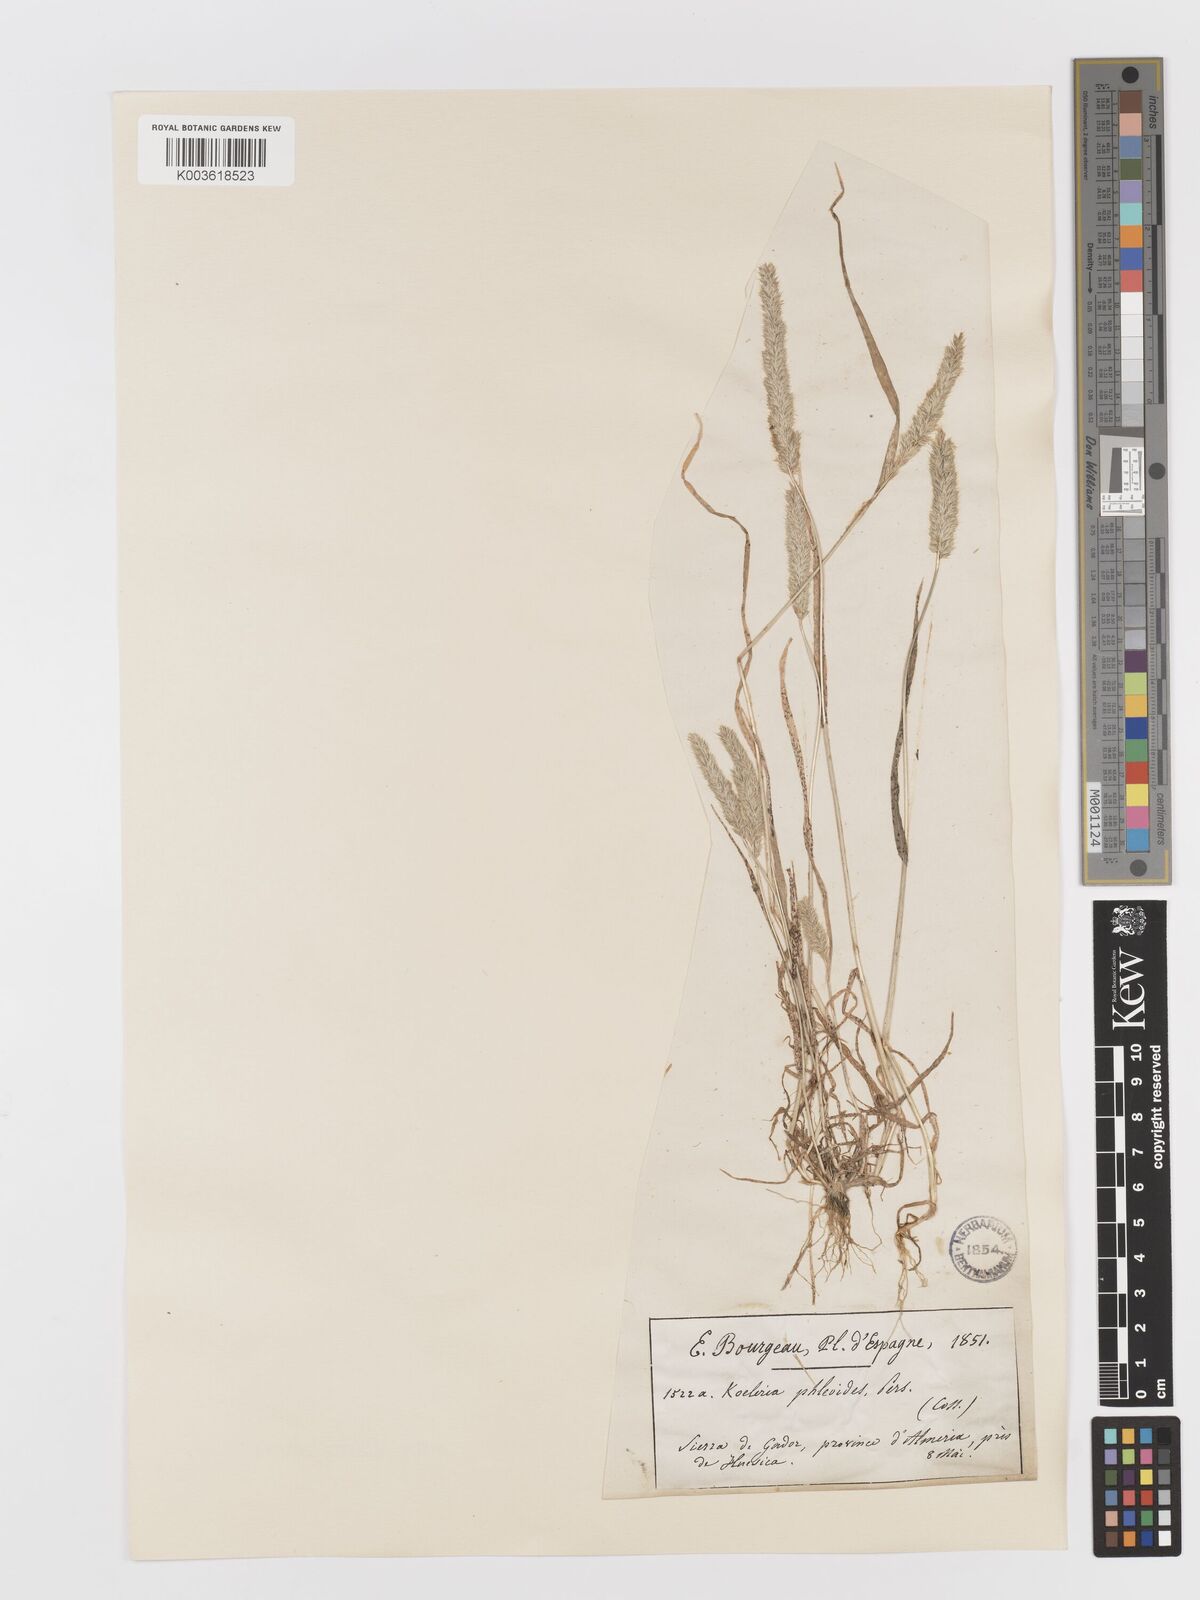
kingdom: Plantae
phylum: Tracheophyta
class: Liliopsida
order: Poales
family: Poaceae
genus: Rostraria
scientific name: Rostraria cristata
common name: Mediterranean hair-grass
